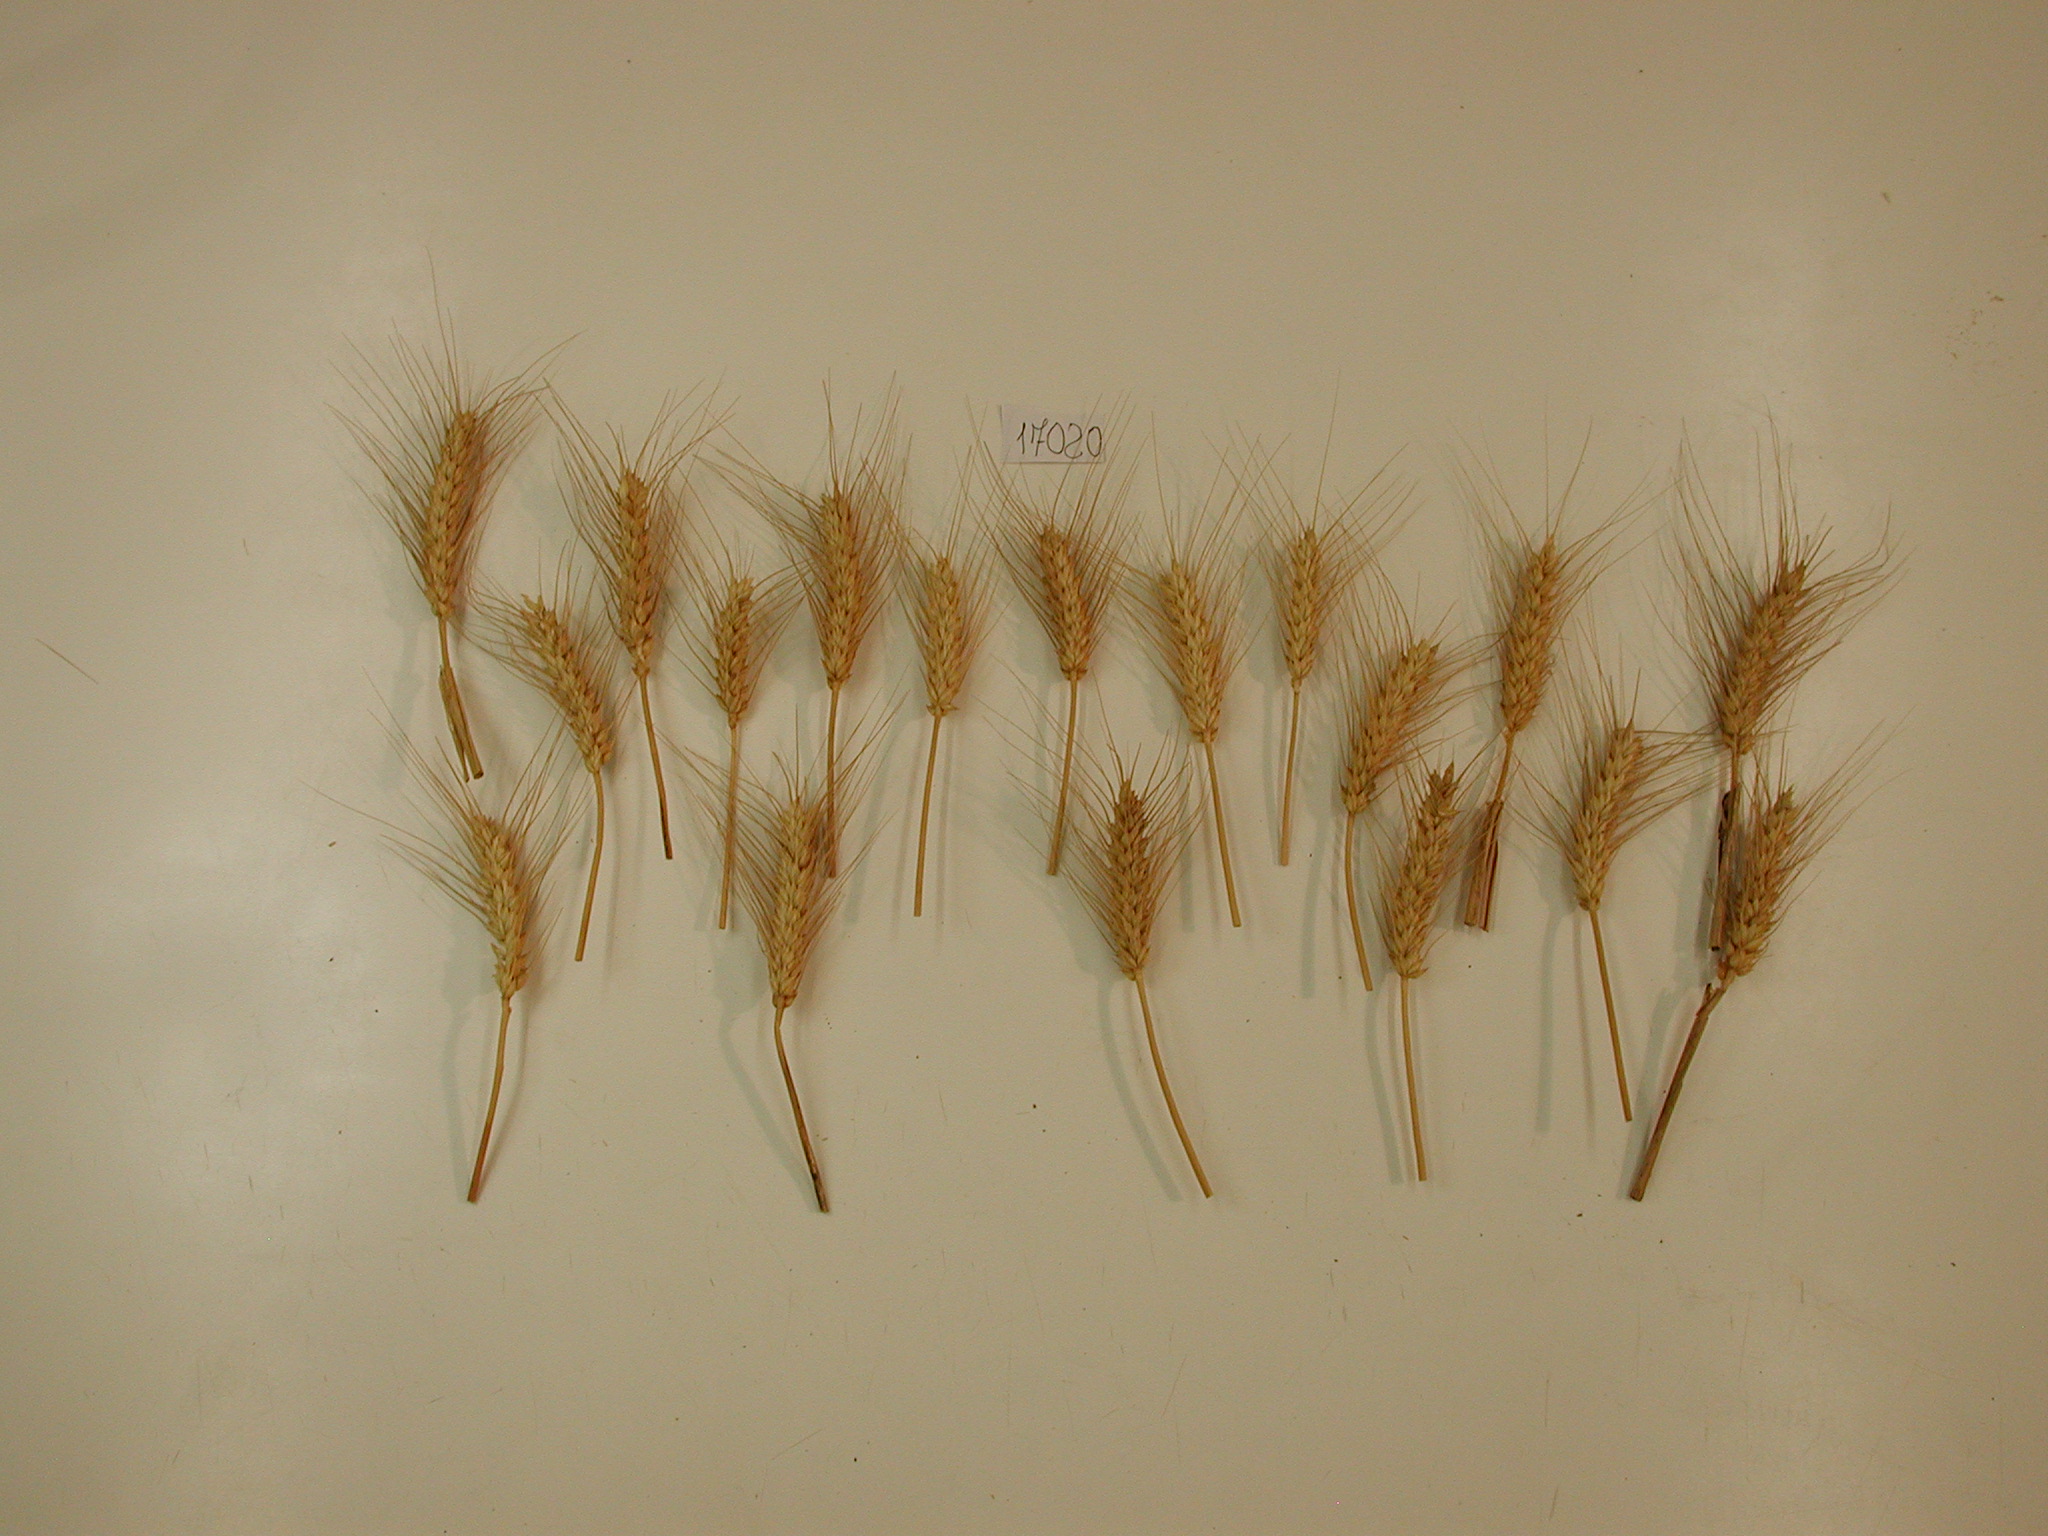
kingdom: Plantae
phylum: Tracheophyta
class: Liliopsida
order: Poales
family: Poaceae
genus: Triticum
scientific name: Triticum
